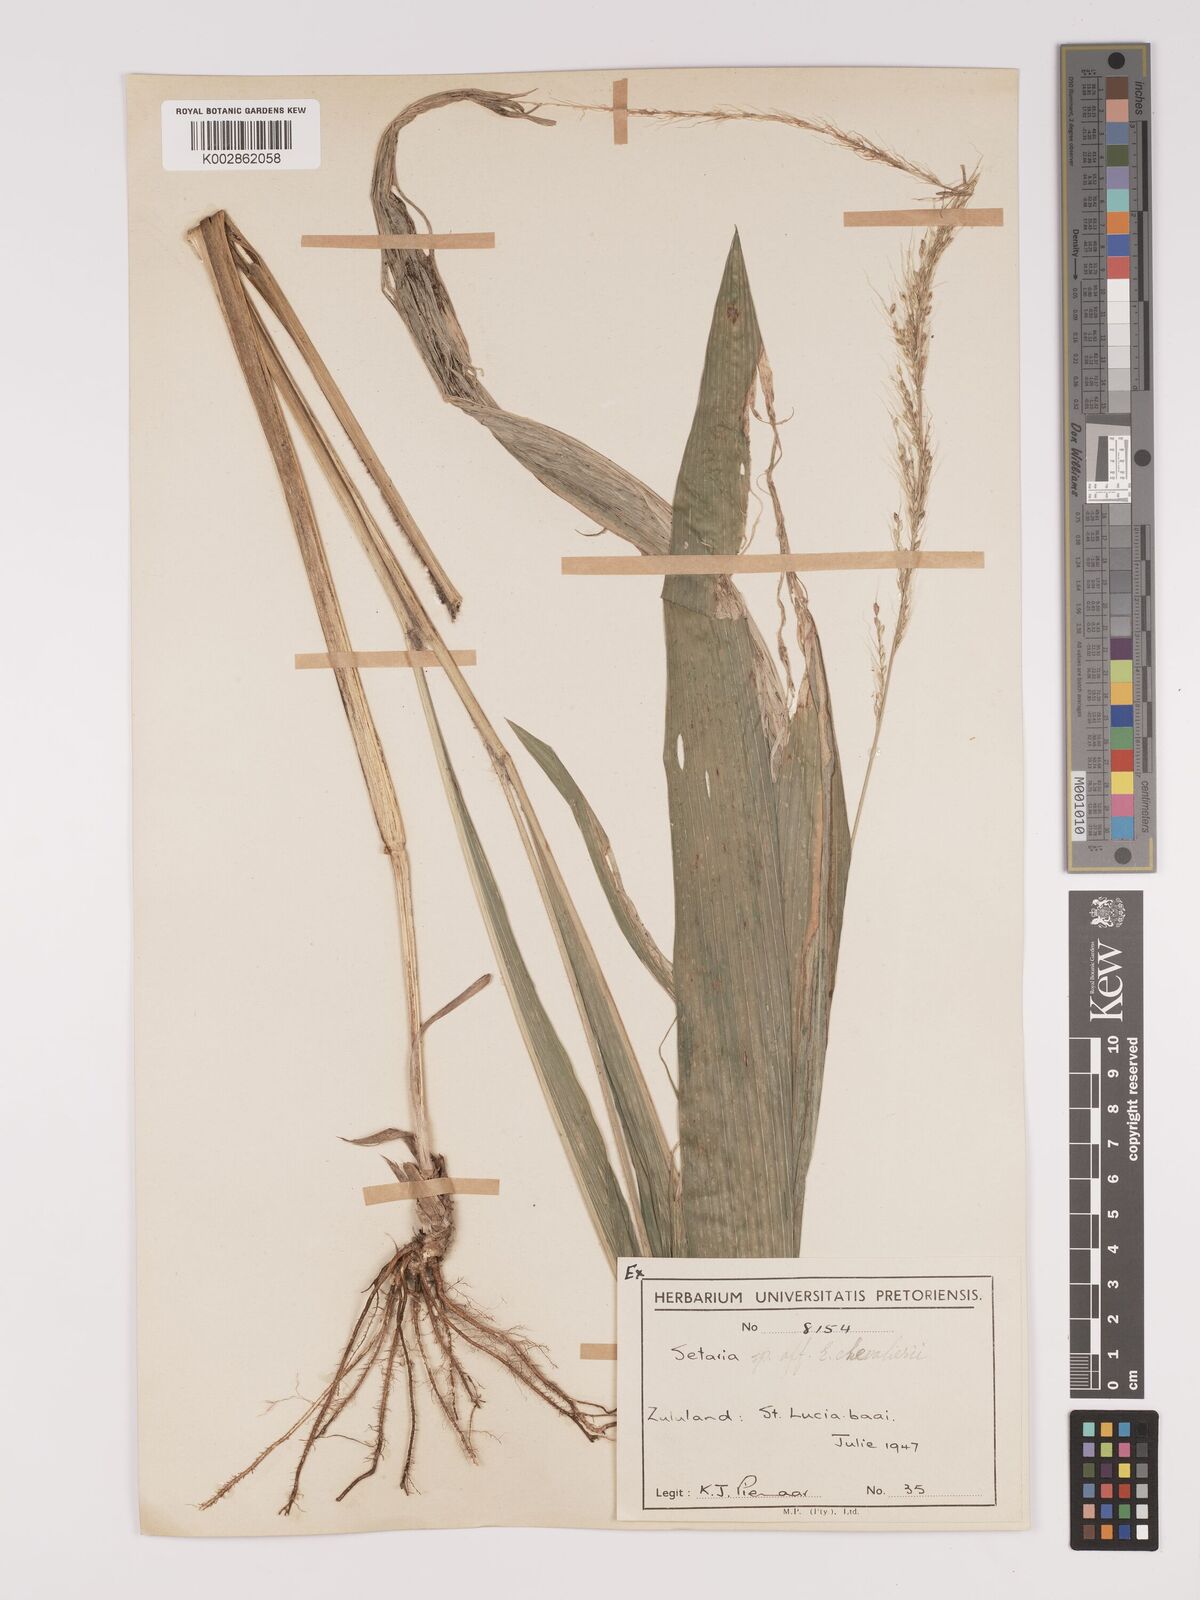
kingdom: Plantae
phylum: Tracheophyta
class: Liliopsida
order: Poales
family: Poaceae
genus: Setaria
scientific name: Setaria megaphylla
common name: Bigleaf bristlegrass
